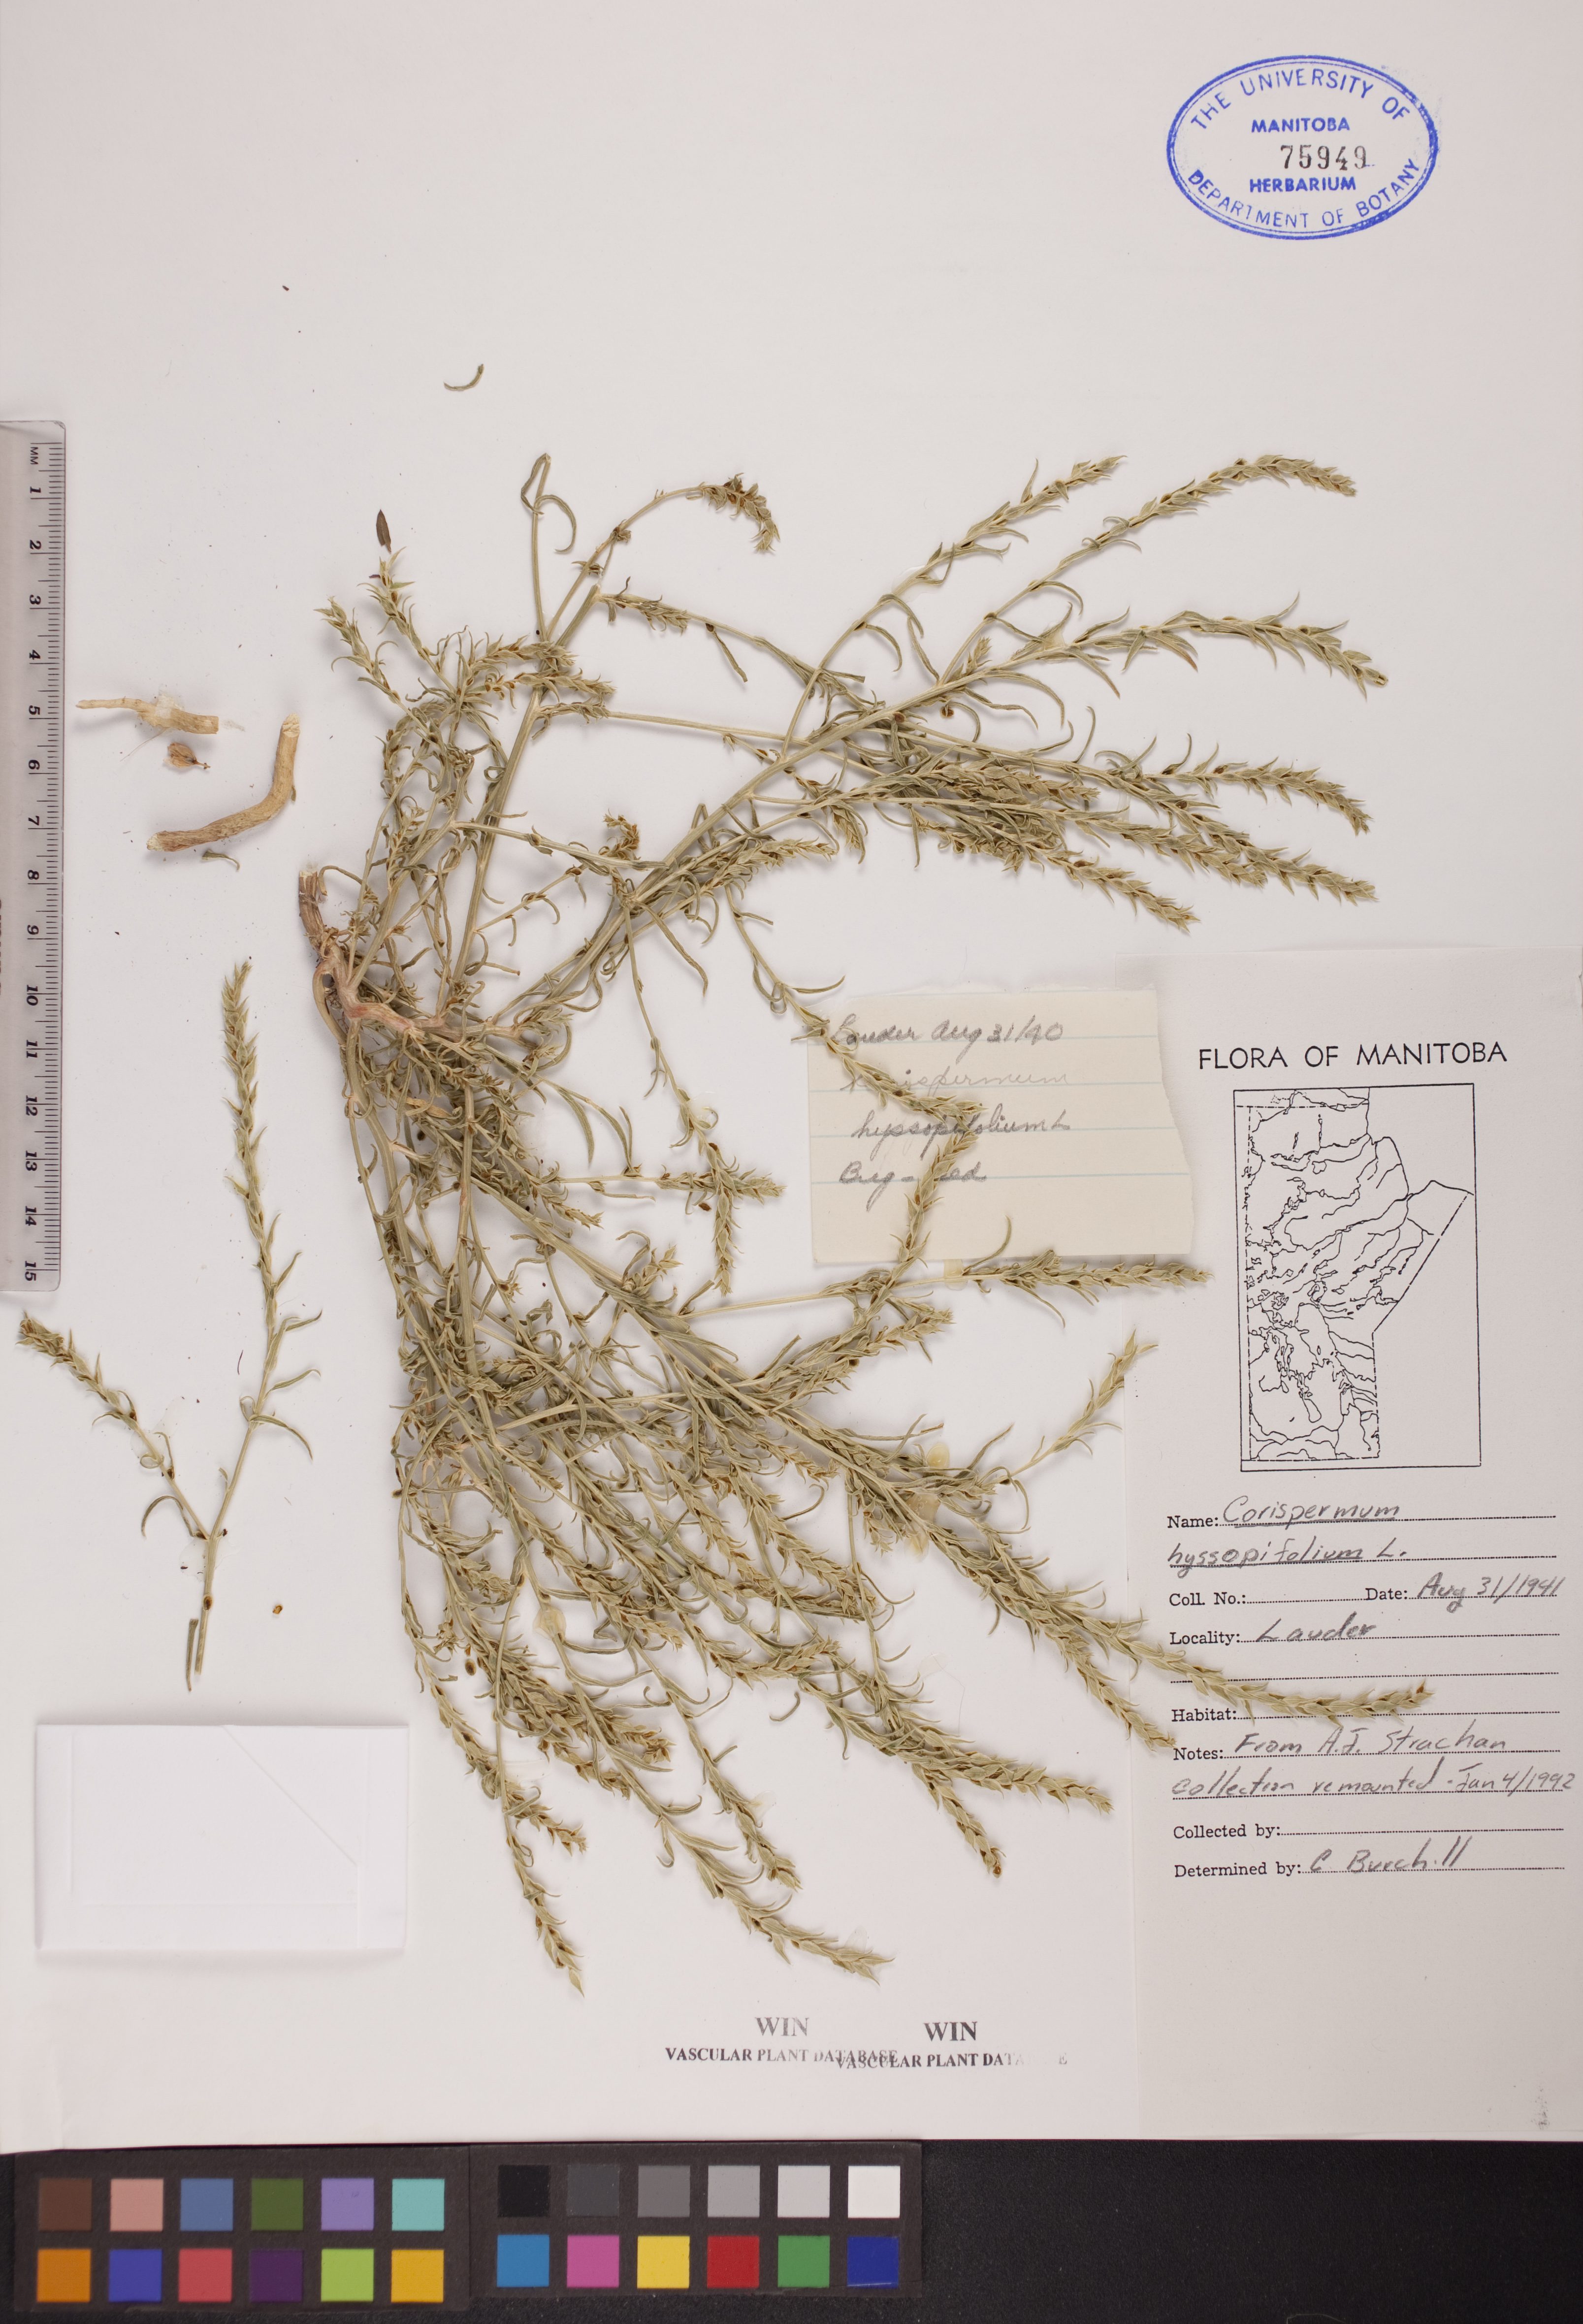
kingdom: Plantae
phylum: Tracheophyta
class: Magnoliopsida
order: Caryophyllales
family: Amaranthaceae
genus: Corispermum
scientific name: Corispermum americanum
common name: American bugseed
